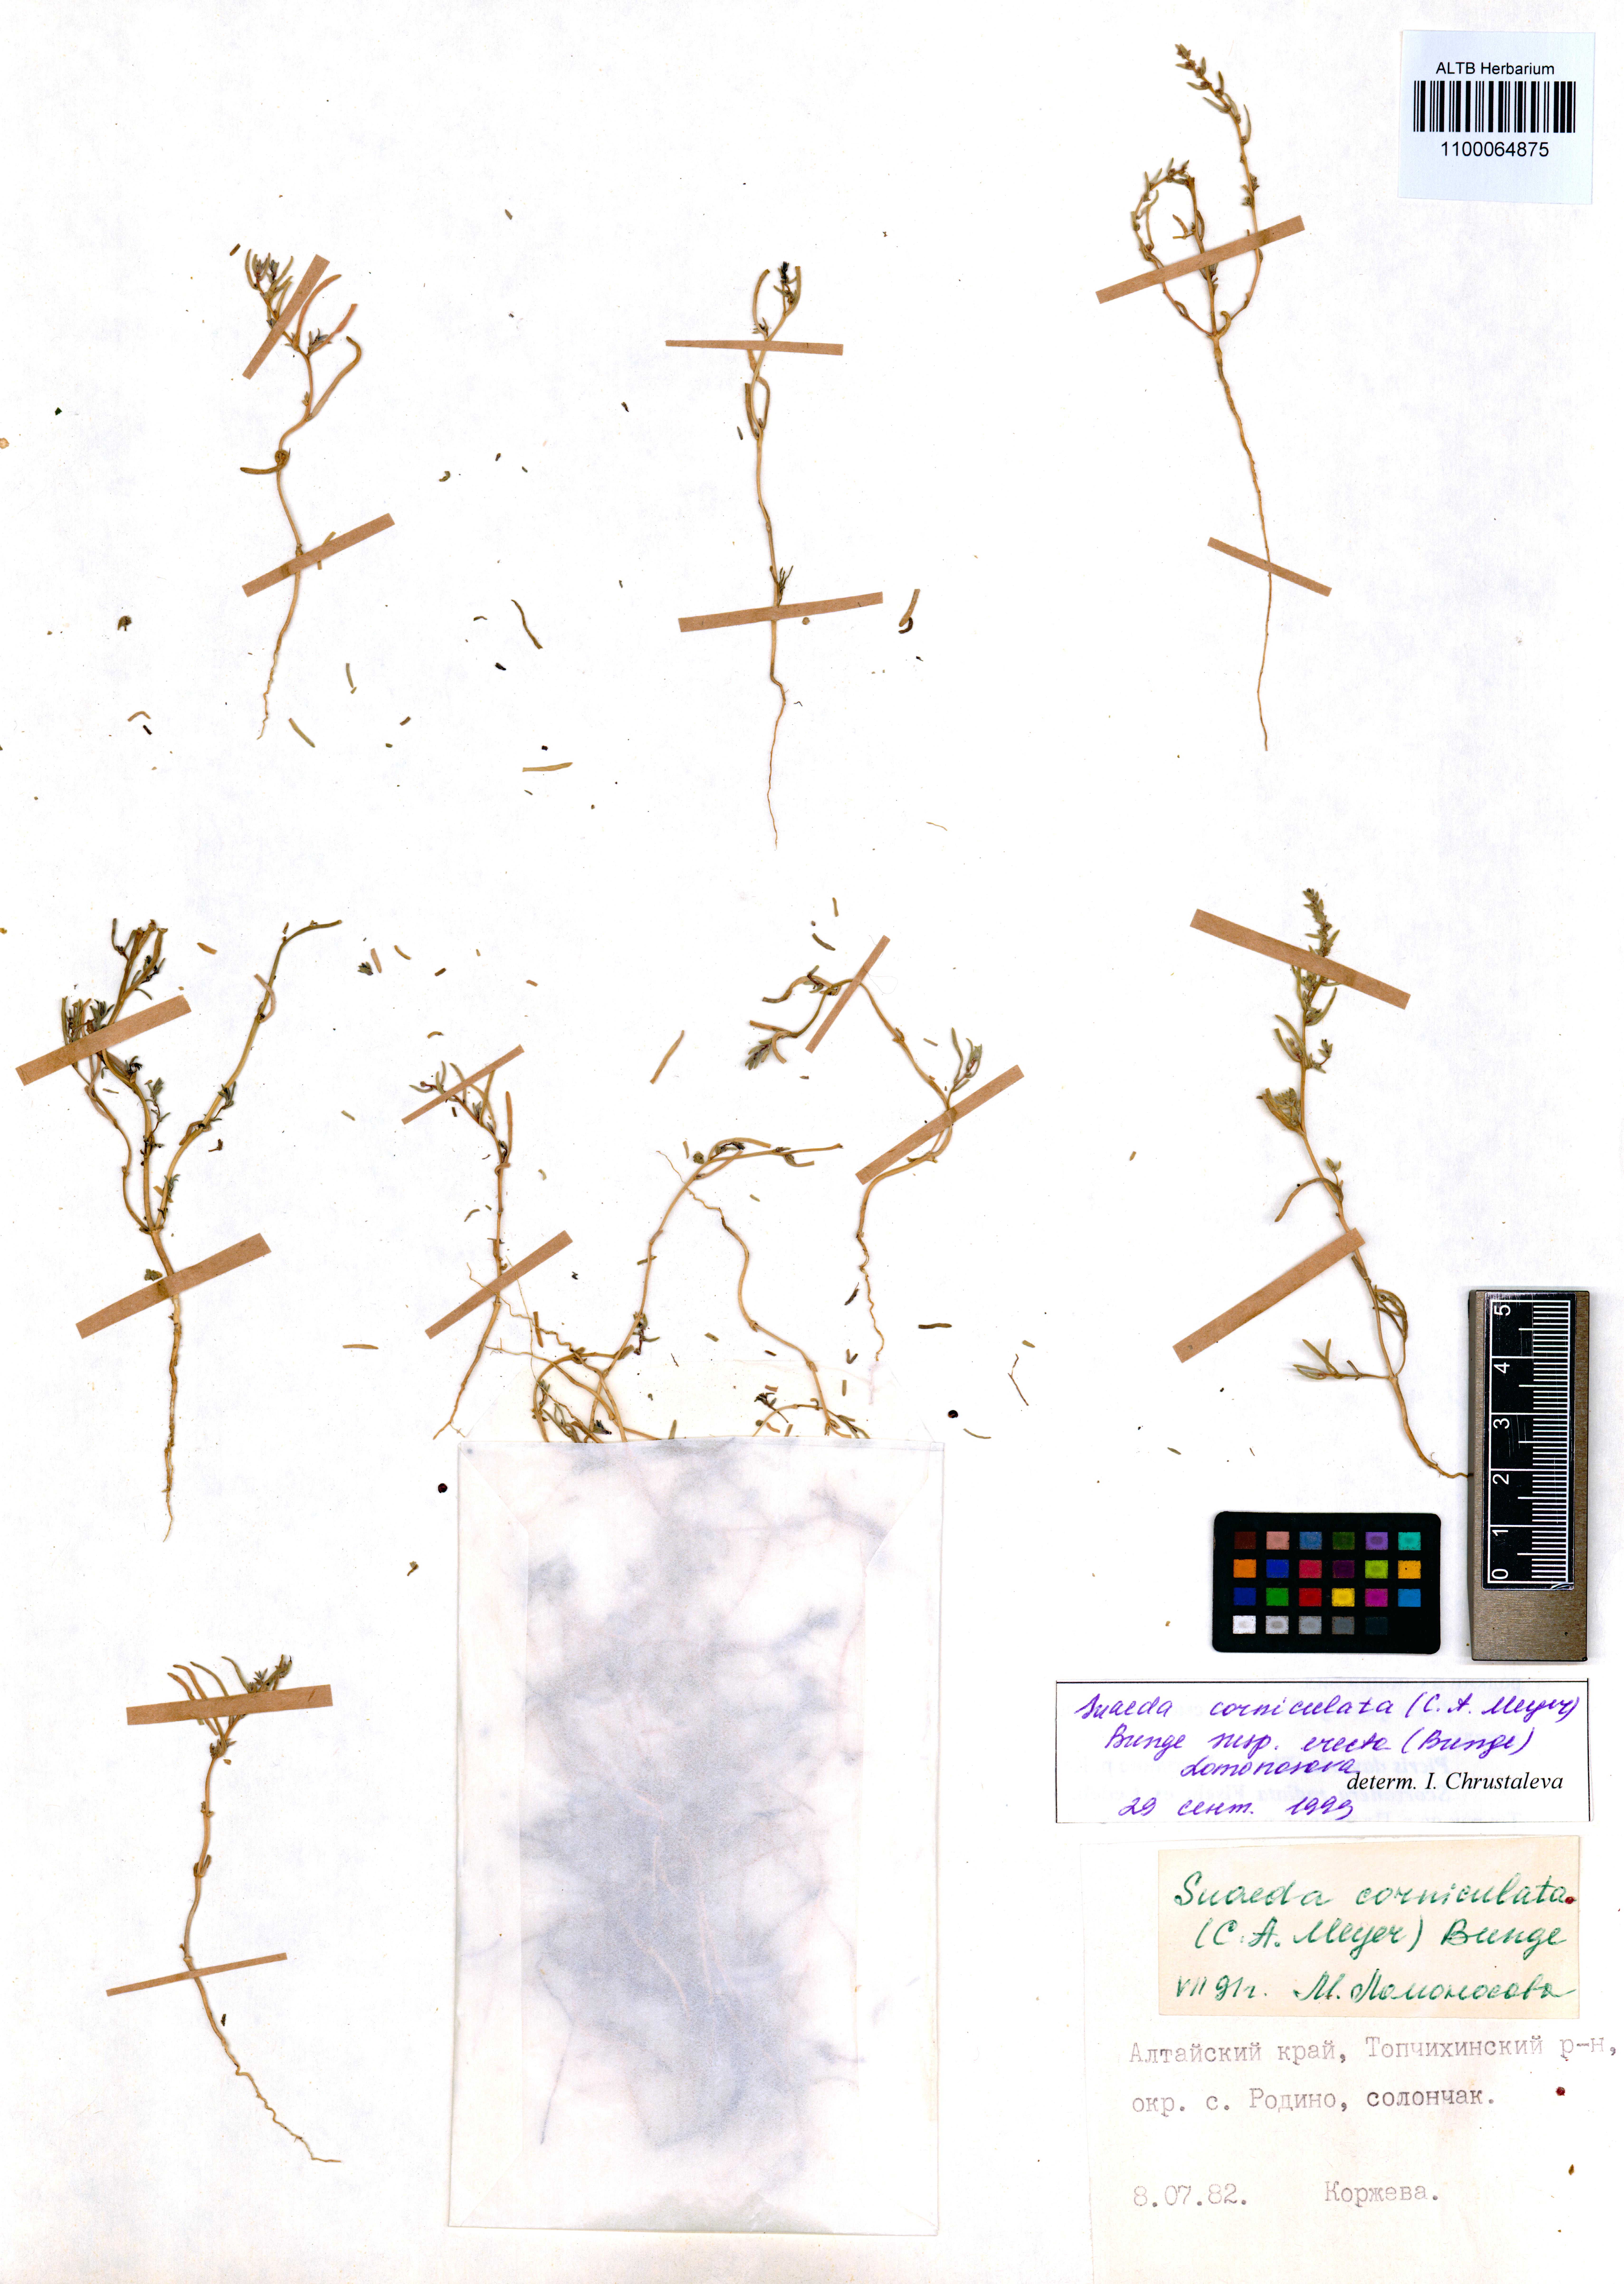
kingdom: Plantae
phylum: Tracheophyta
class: Magnoliopsida
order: Caryophyllales
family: Amaranthaceae
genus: Suaeda
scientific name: Suaeda corniculata
